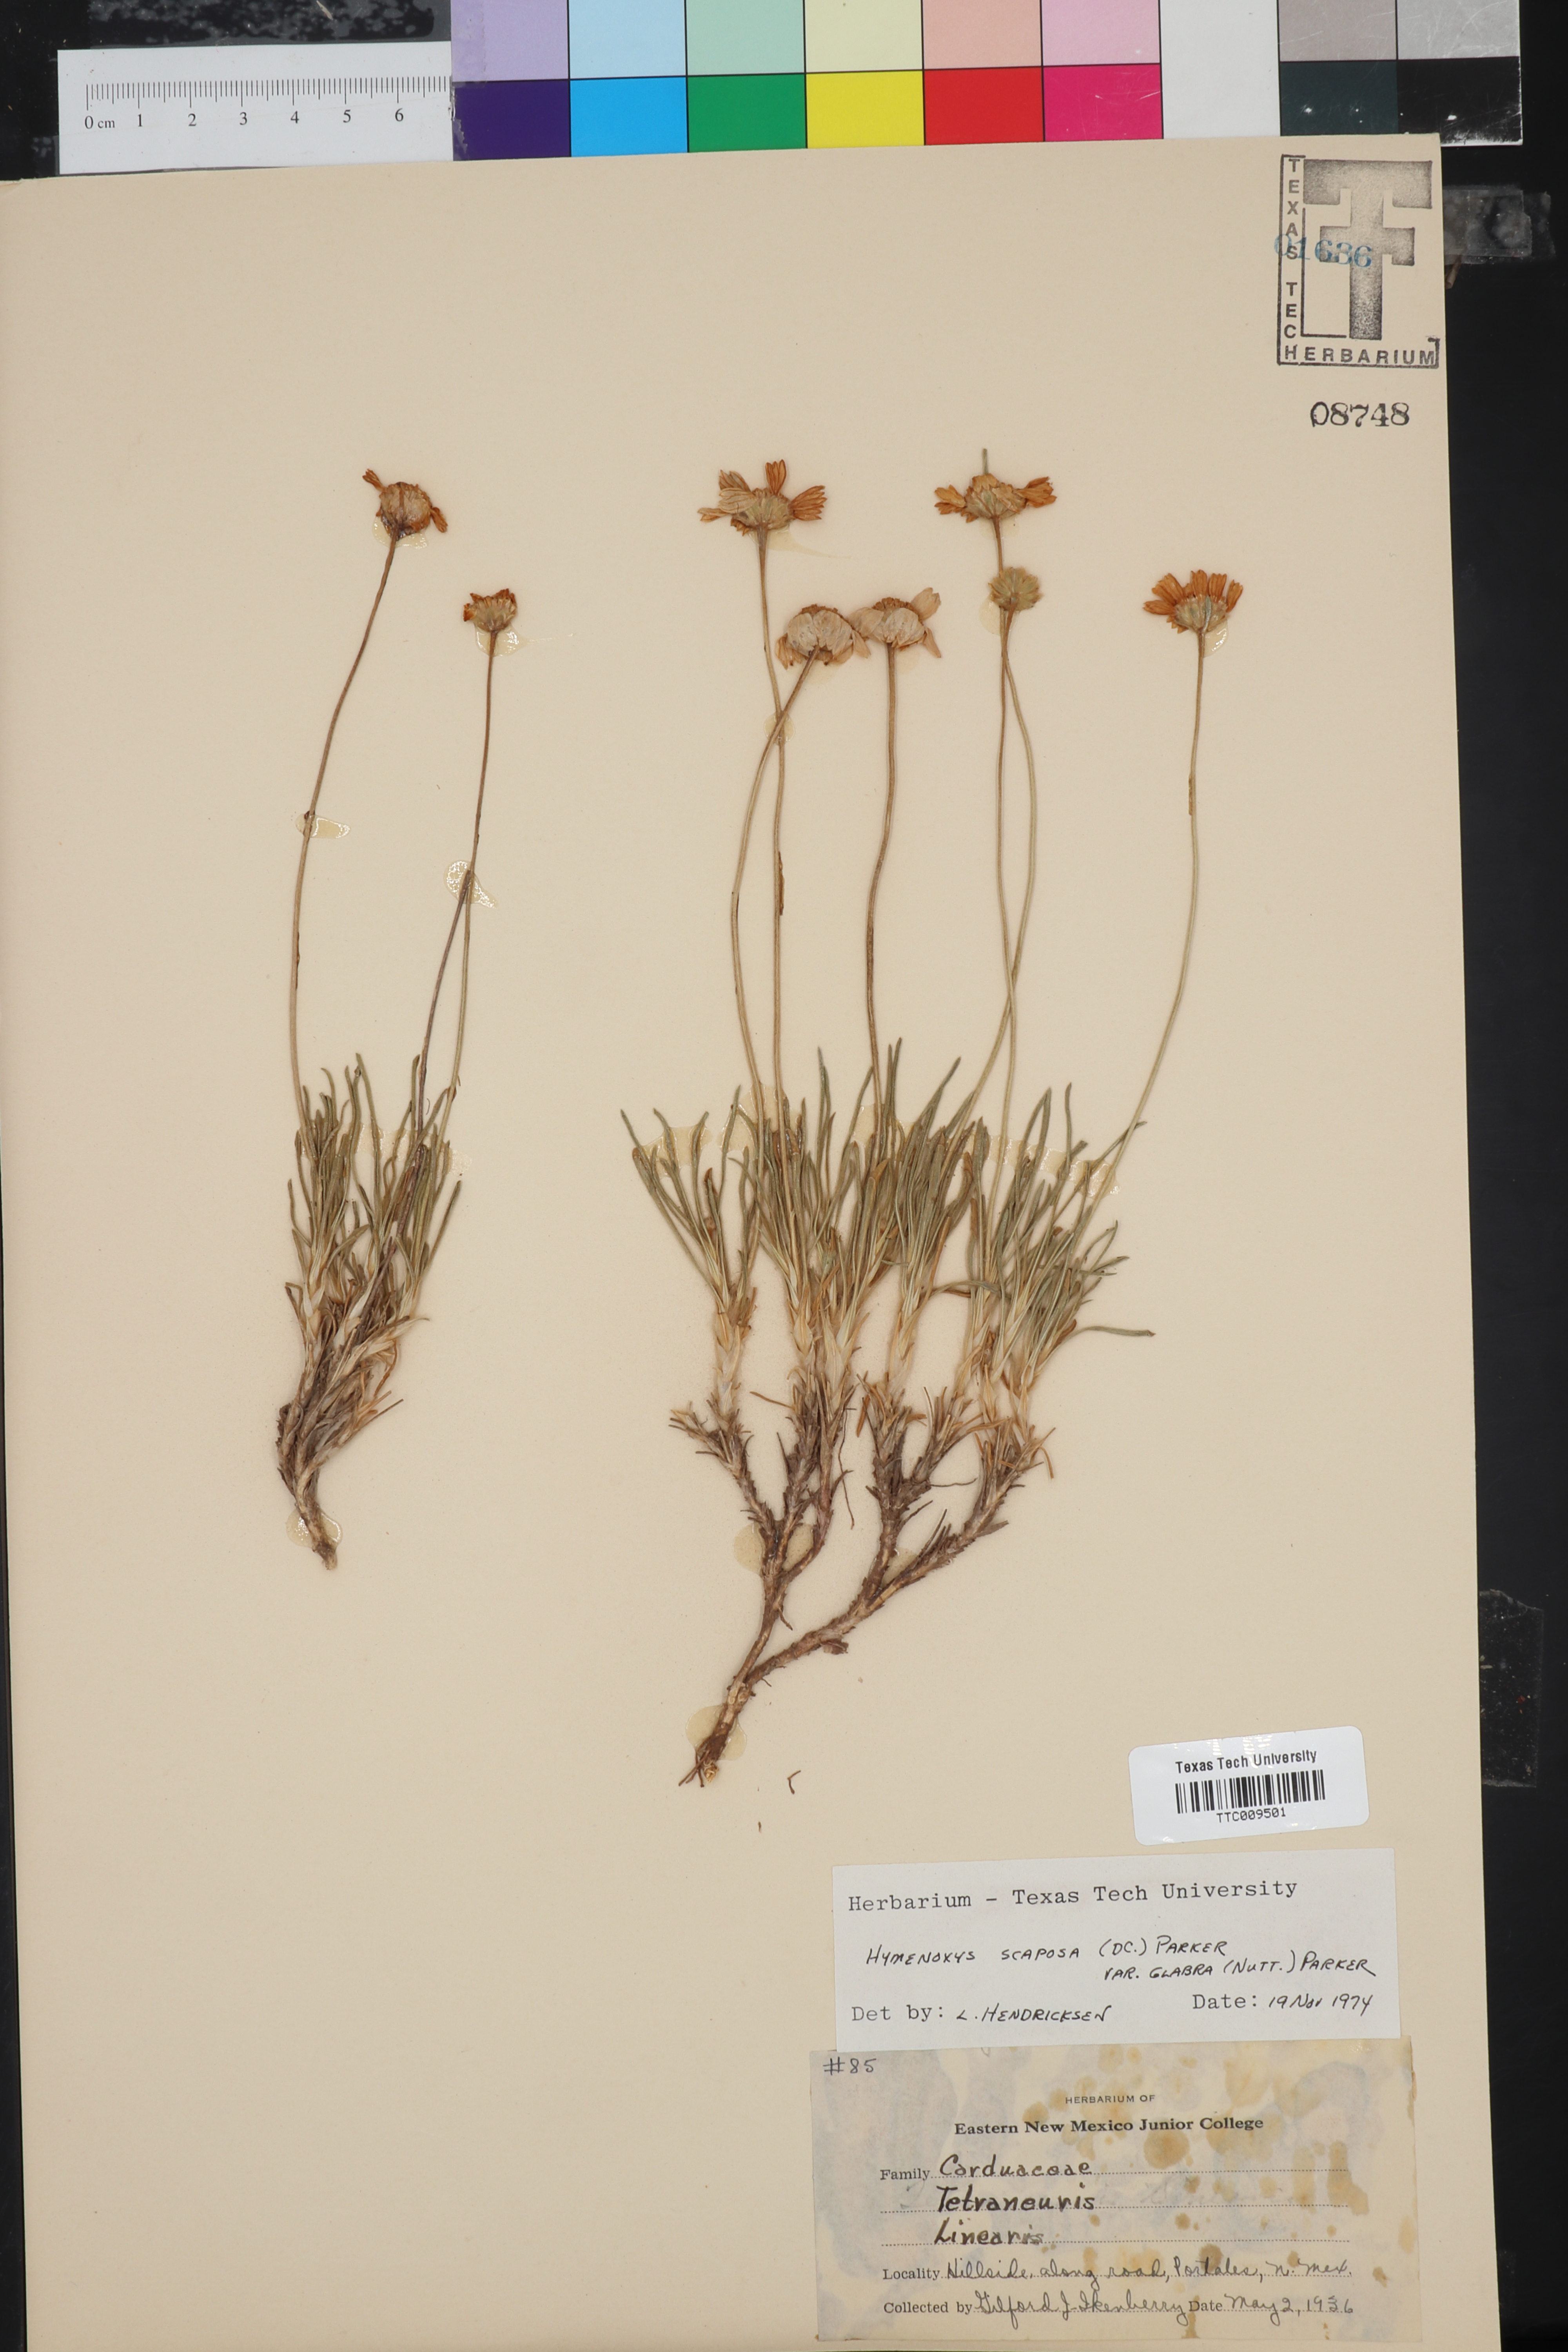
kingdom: Plantae
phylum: Tracheophyta
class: Magnoliopsida
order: Asterales
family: Asteraceae
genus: Tetraneuris
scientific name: Tetraneuris scaposa
